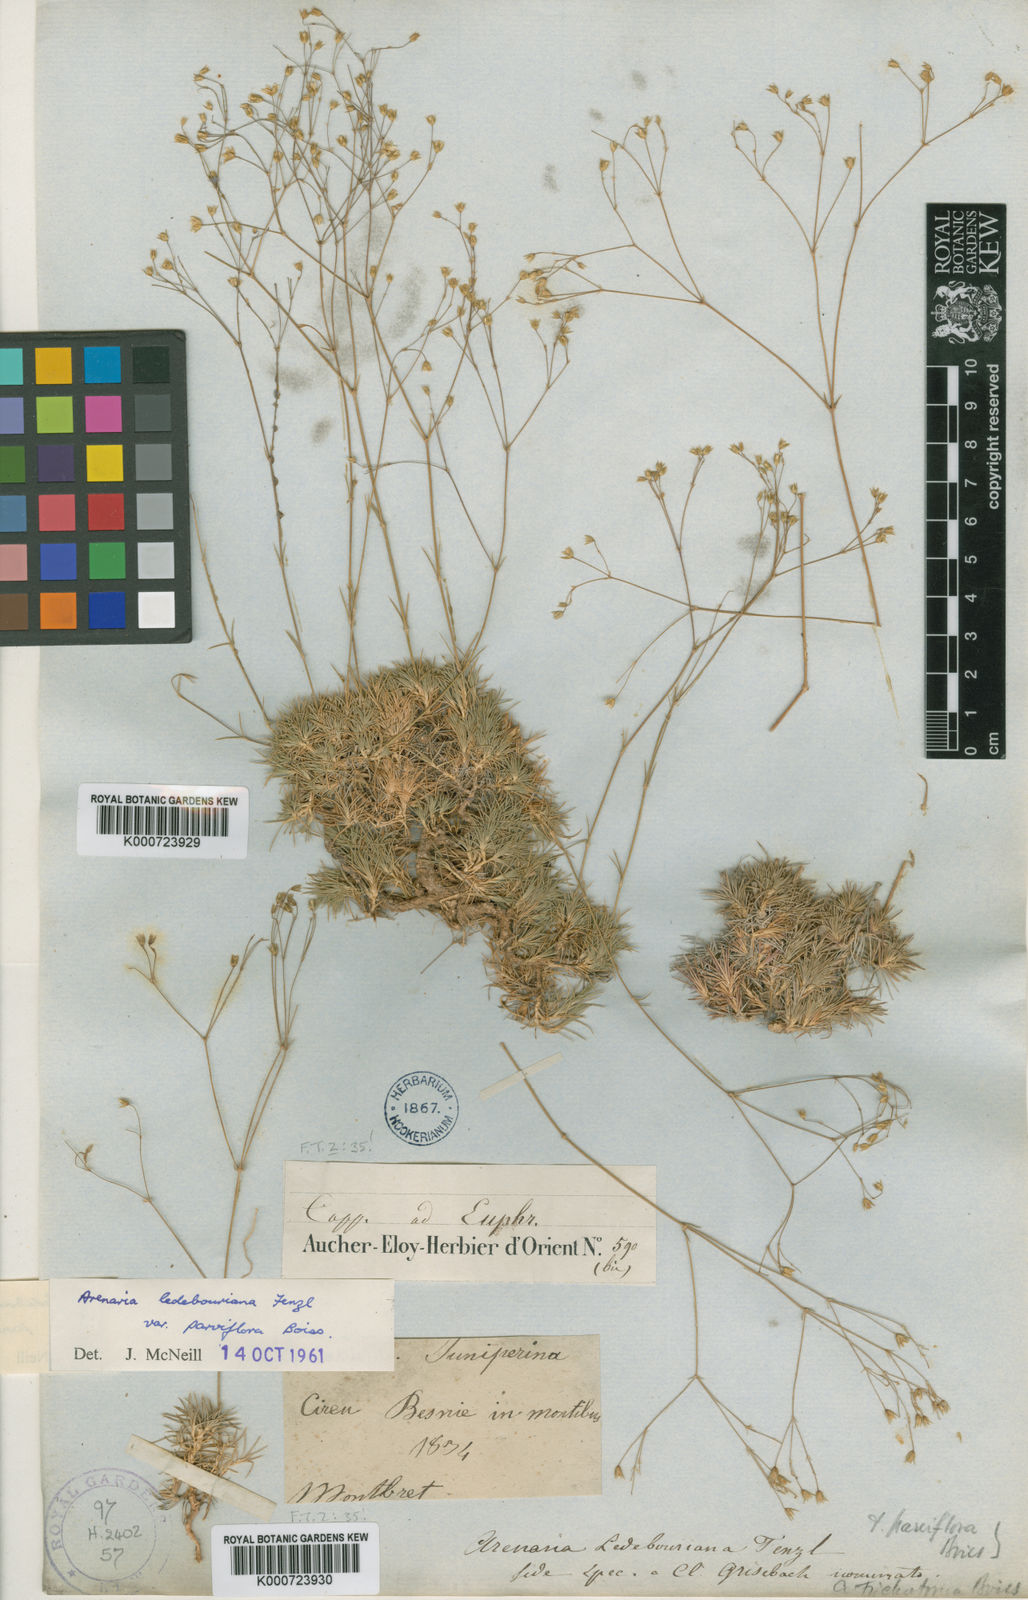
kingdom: Plantae
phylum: Tracheophyta
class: Magnoliopsida
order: Caryophyllales
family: Caryophyllaceae
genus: Eremogone
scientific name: Eremogone ledebouriana
